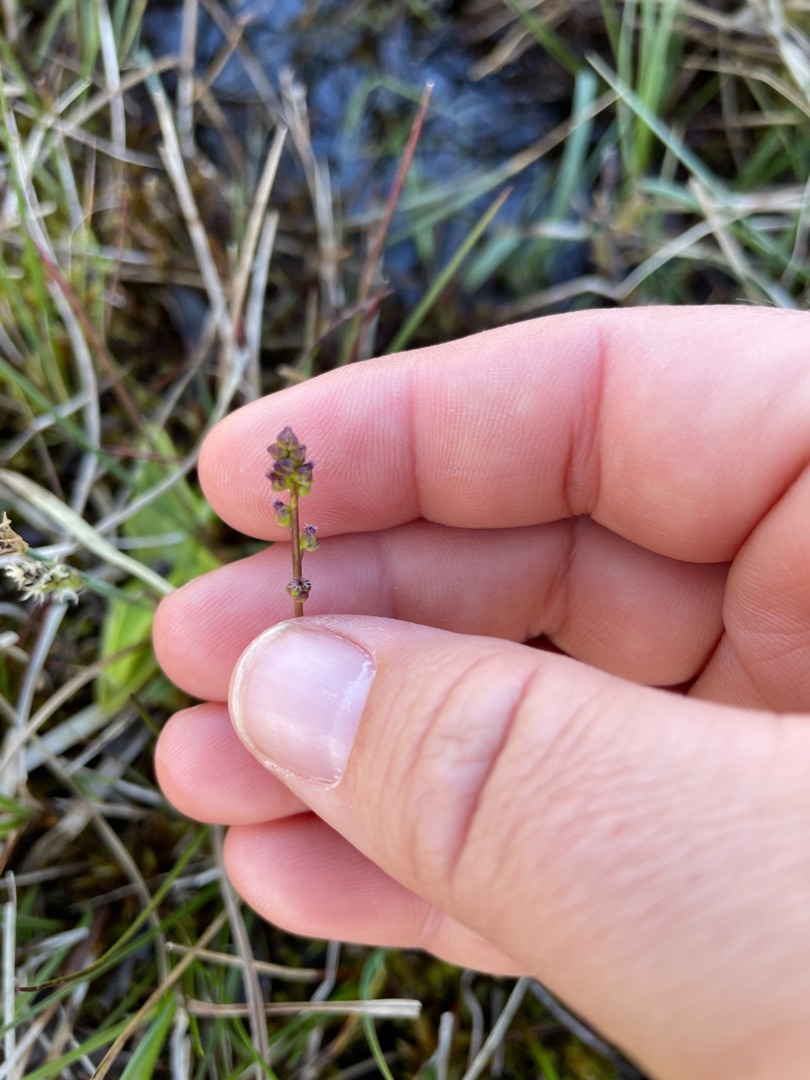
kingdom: Plantae
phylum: Tracheophyta
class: Liliopsida
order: Alismatales
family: Juncaginaceae
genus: Triglochin
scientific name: Triglochin palustris
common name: Kær-trehage
